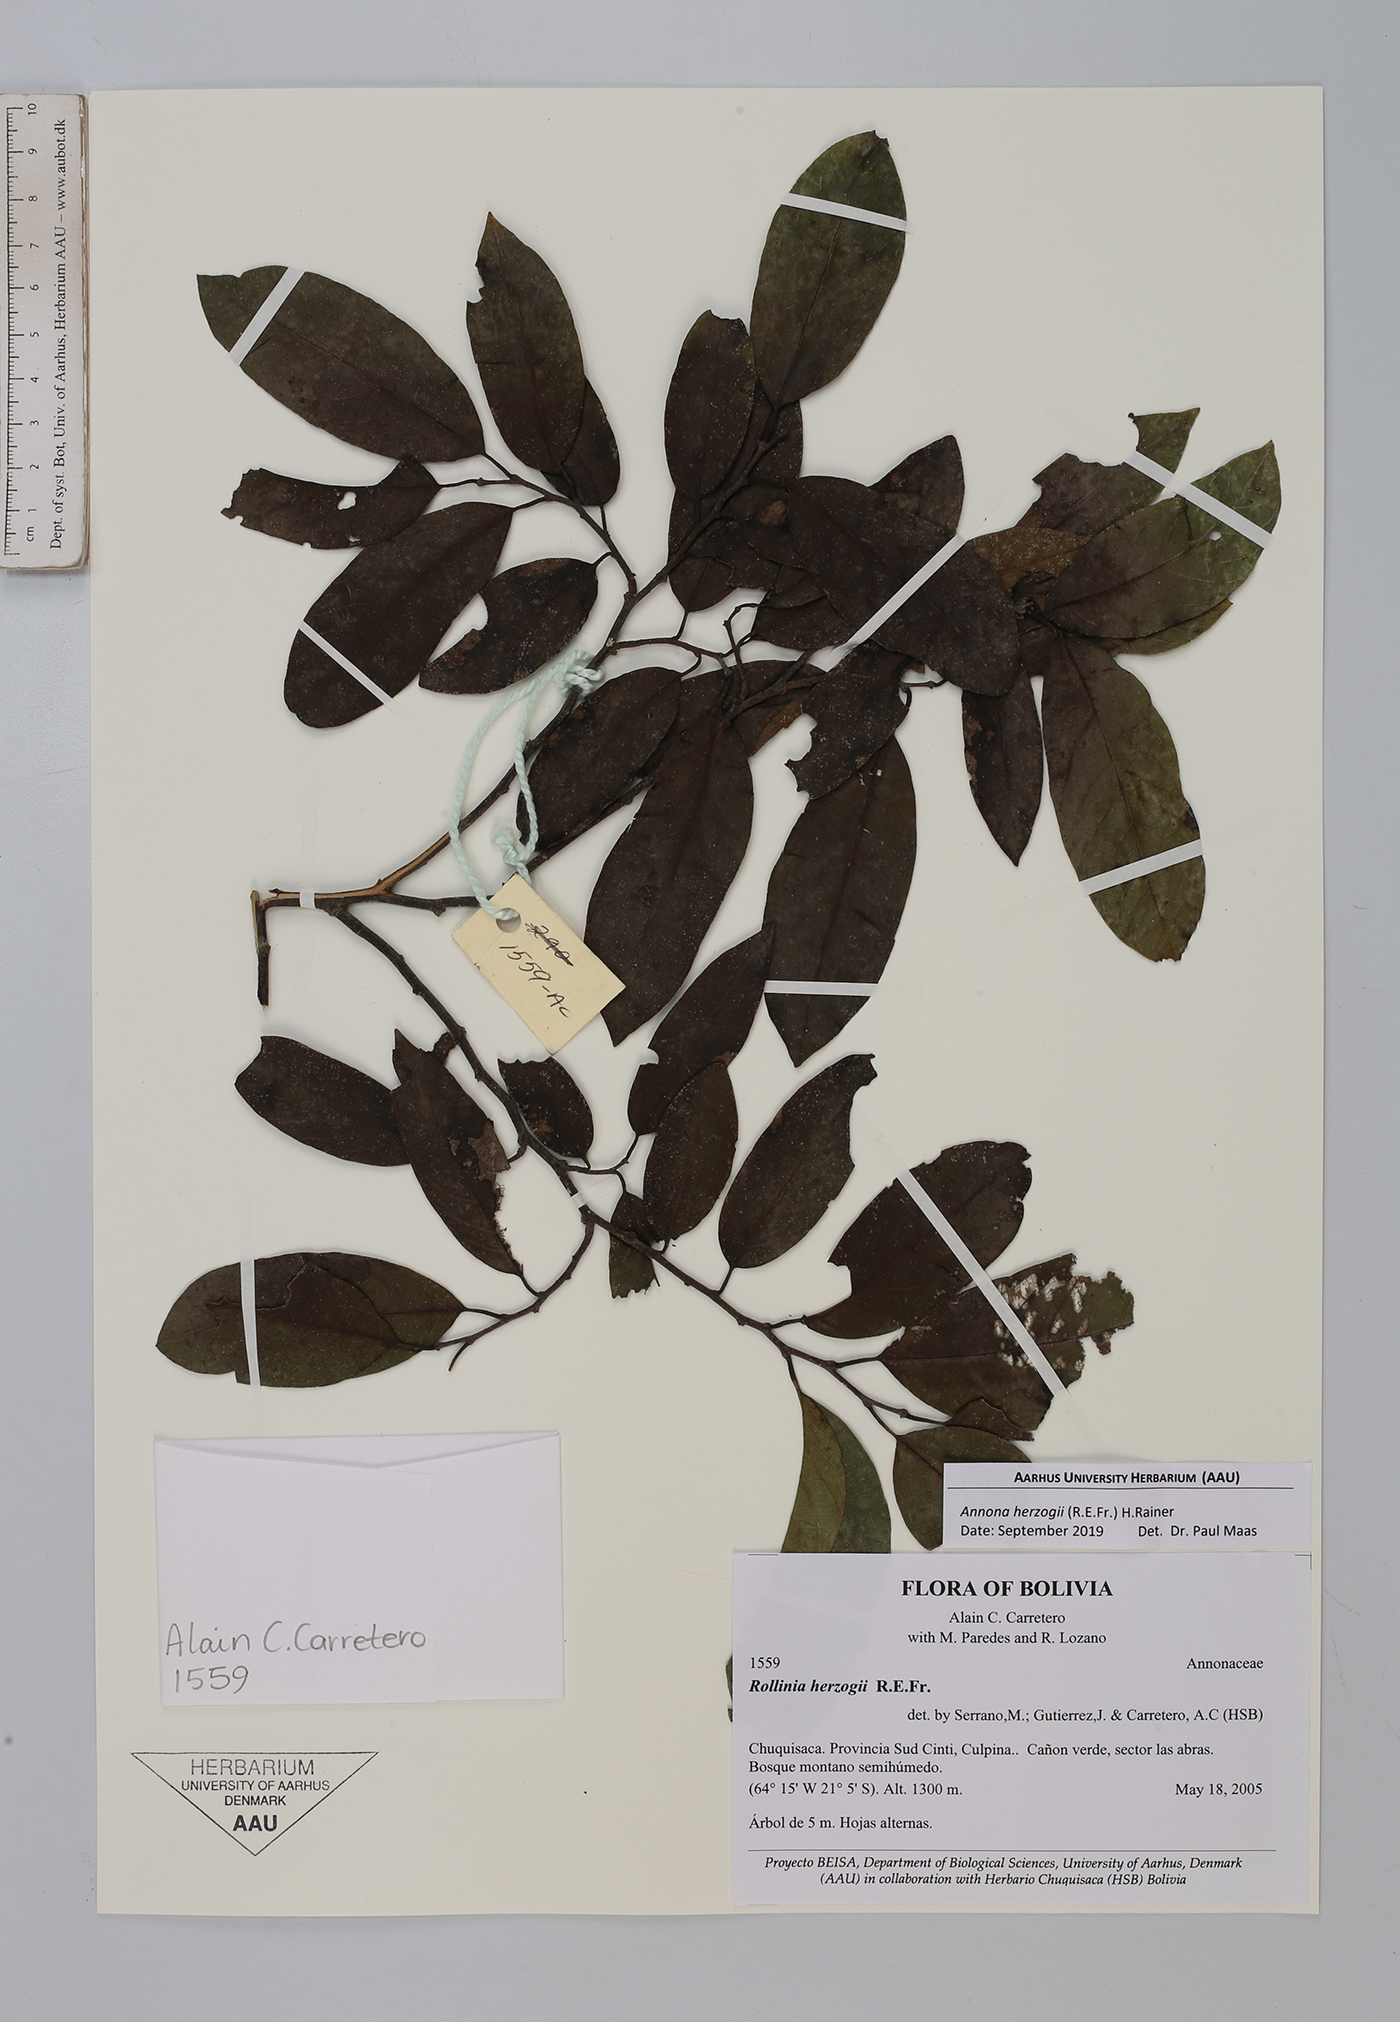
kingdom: Plantae
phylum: Tracheophyta
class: Magnoliopsida
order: Magnoliales
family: Annonaceae
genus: Annona
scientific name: Annona herzogii
